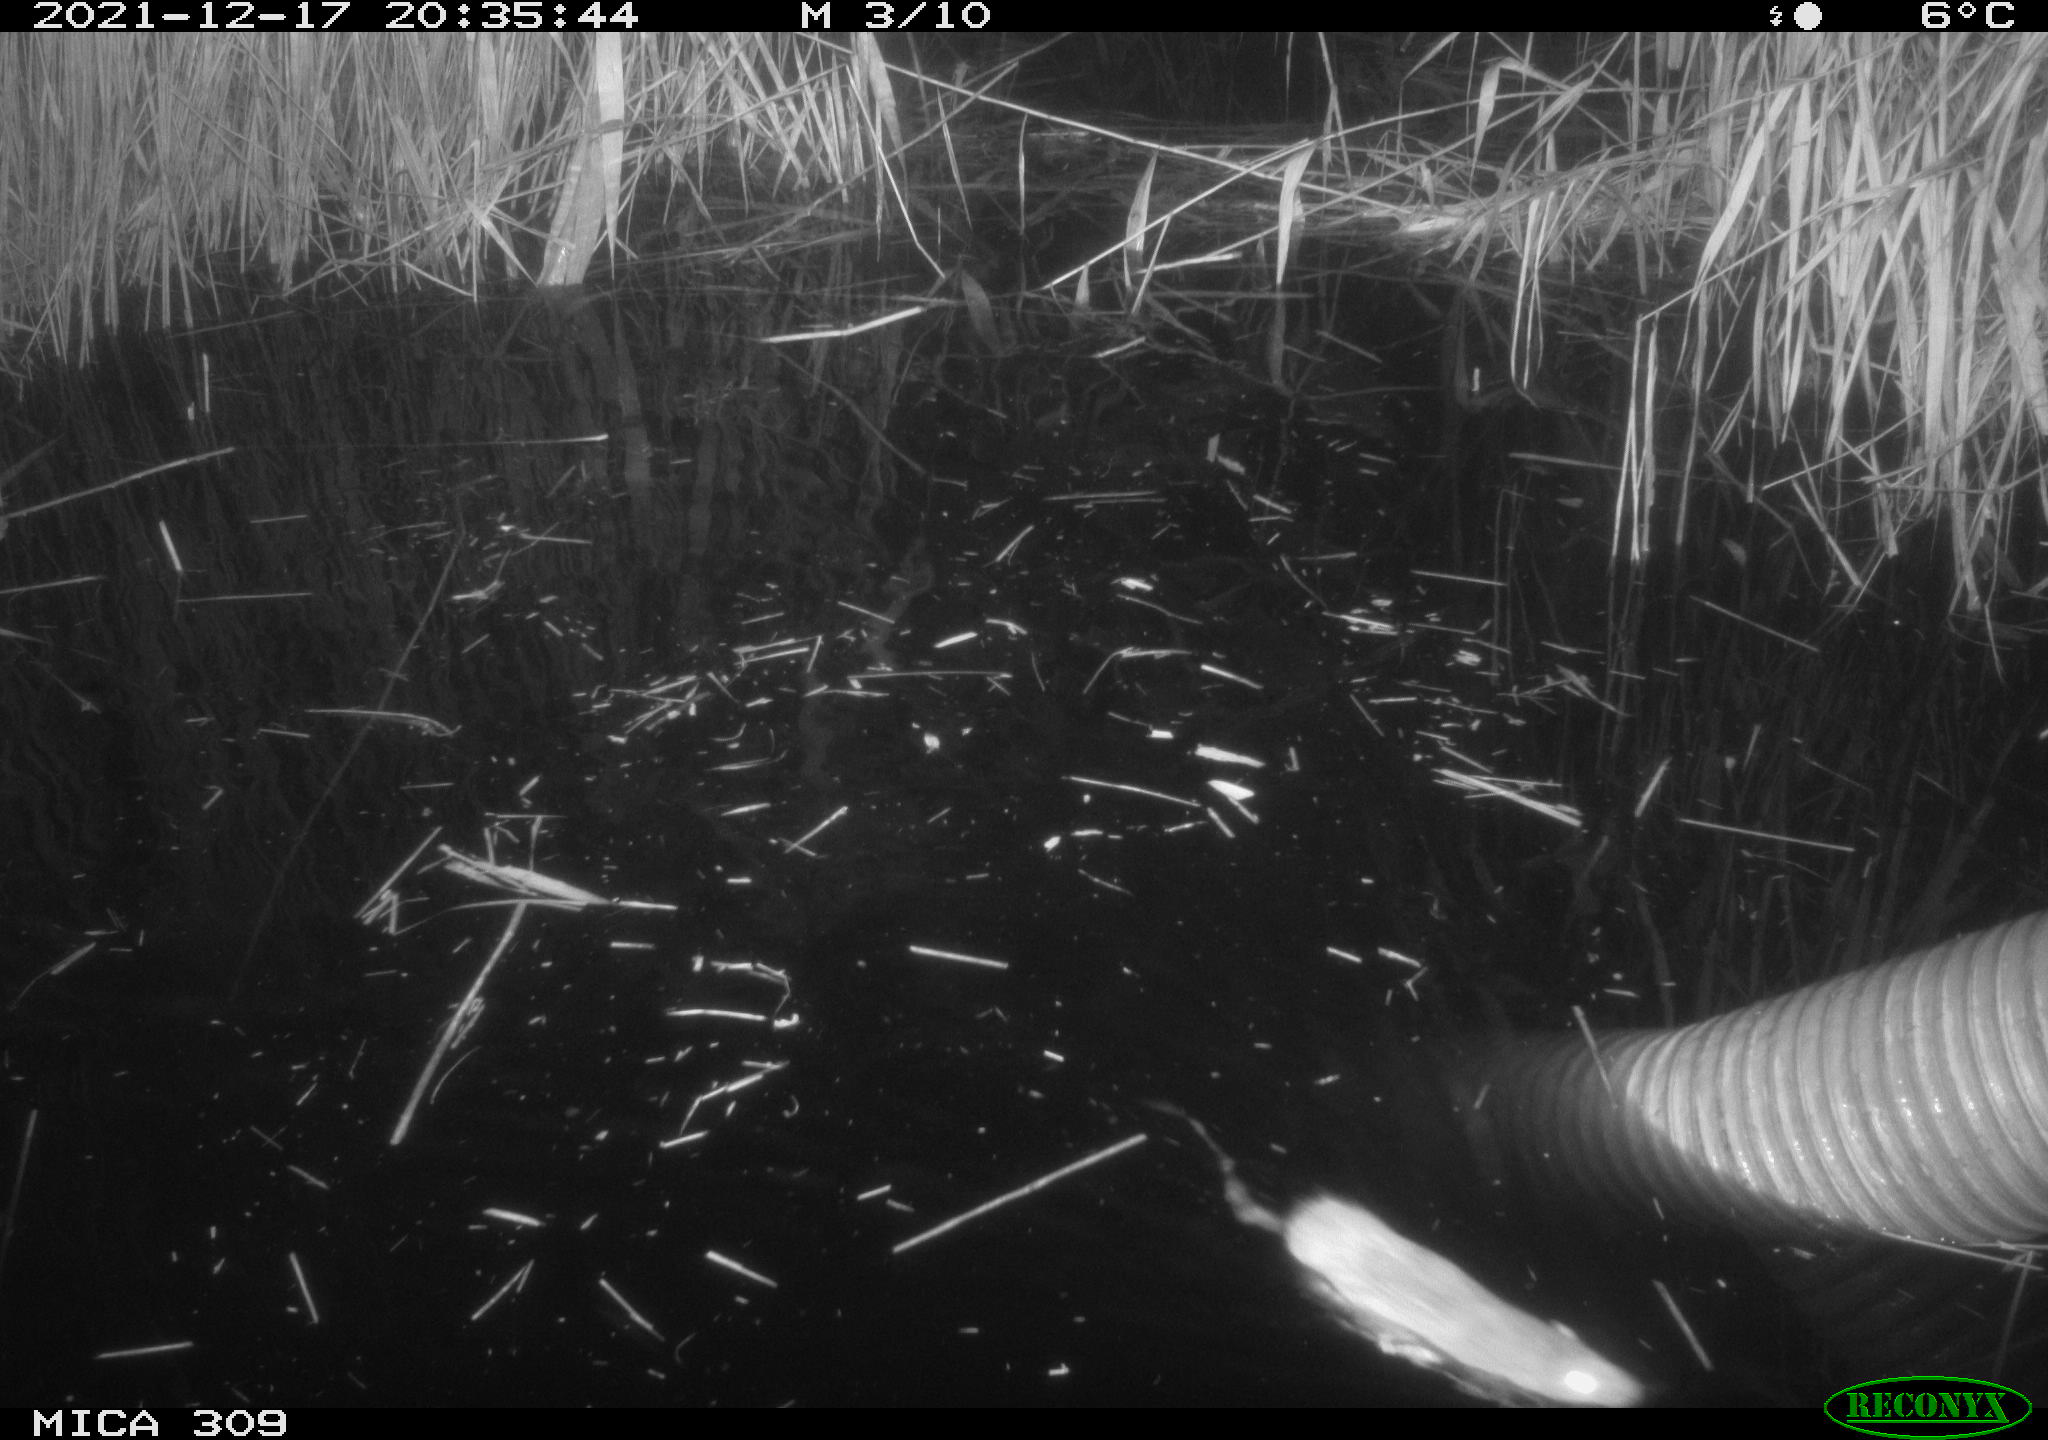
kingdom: Animalia
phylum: Chordata
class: Mammalia
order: Rodentia
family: Muridae
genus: Rattus
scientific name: Rattus norvegicus
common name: Brown rat
